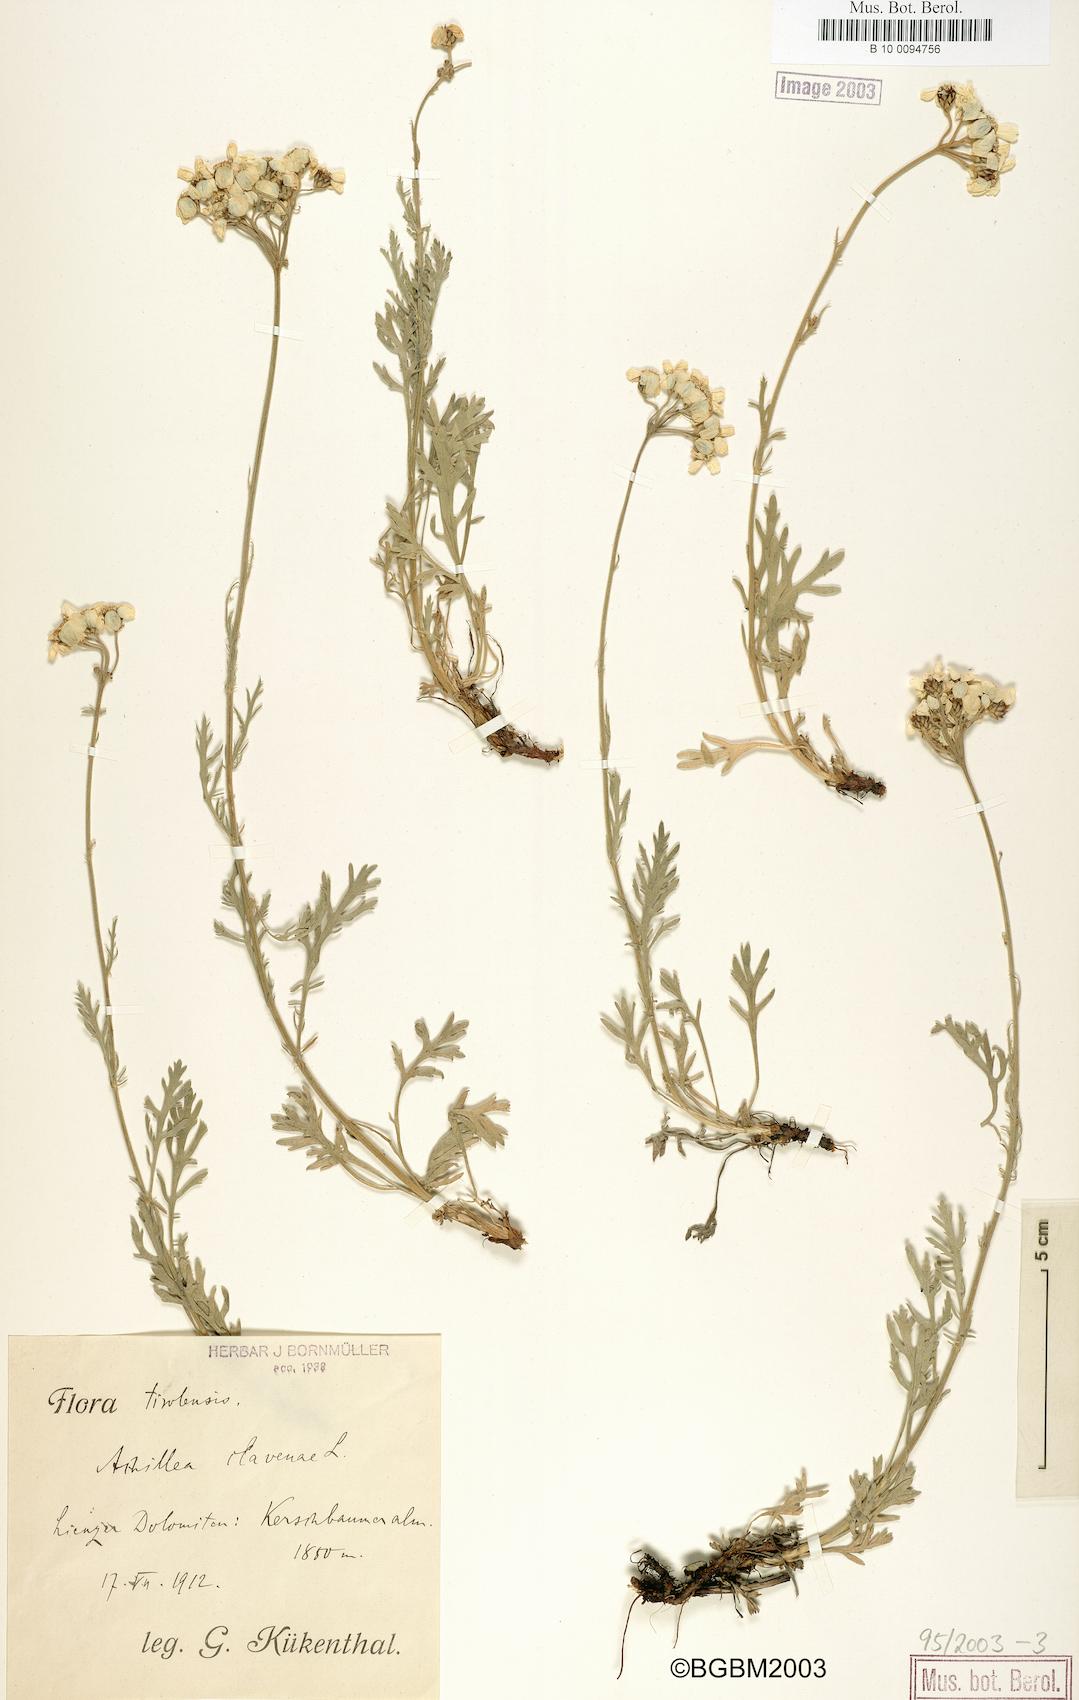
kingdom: Plantae
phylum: Tracheophyta
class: Magnoliopsida
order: Asterales
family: Asteraceae
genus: Achillea
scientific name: Achillea clavennae
